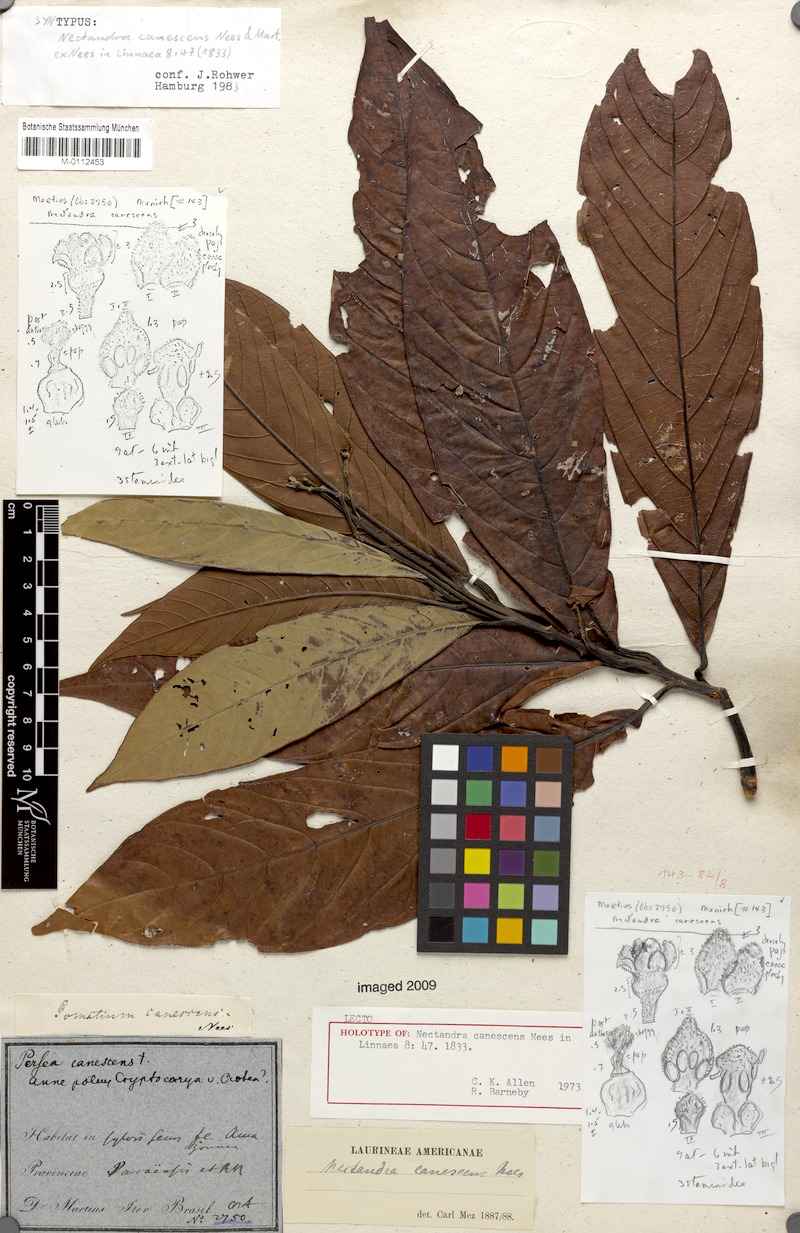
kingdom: Plantae
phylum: Tracheophyta
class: Magnoliopsida
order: Laurales
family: Lauraceae
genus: Nectandra
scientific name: Nectandra canescens
